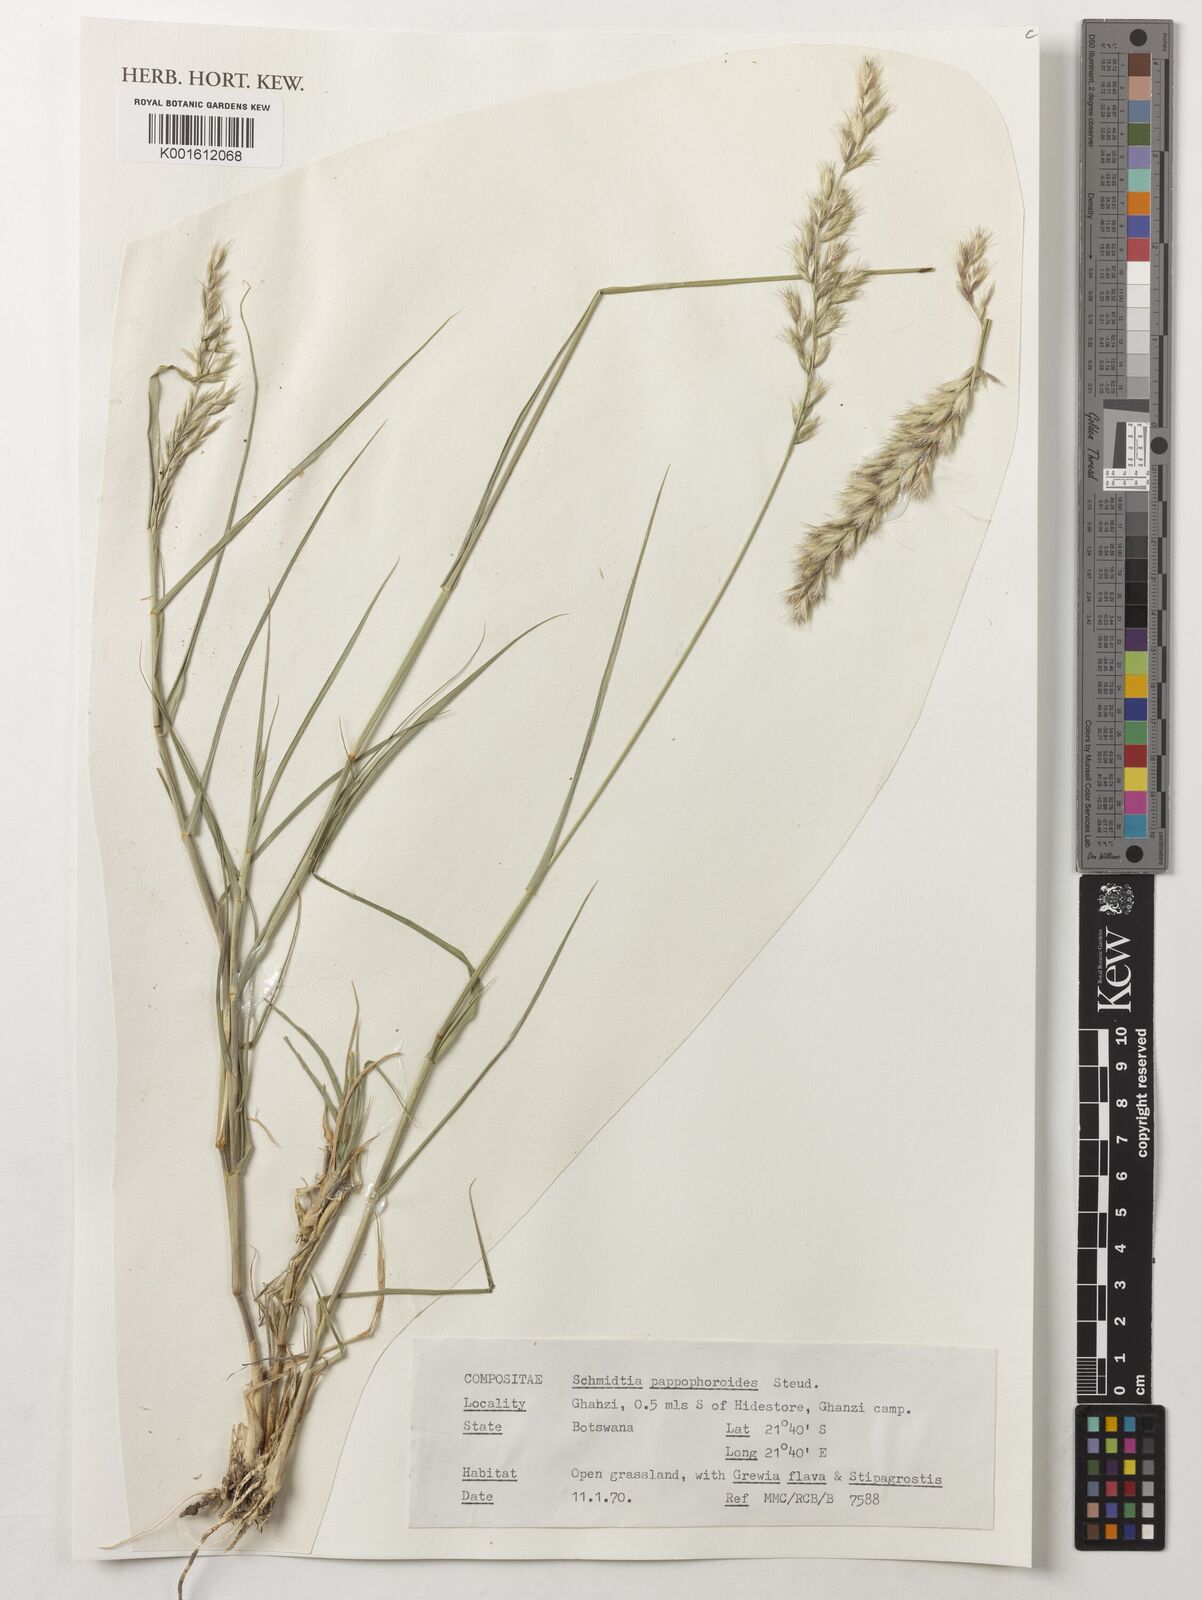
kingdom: Plantae
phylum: Tracheophyta
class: Liliopsida
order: Poales
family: Poaceae
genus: Schmidtia
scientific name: Schmidtia pappophoroides
